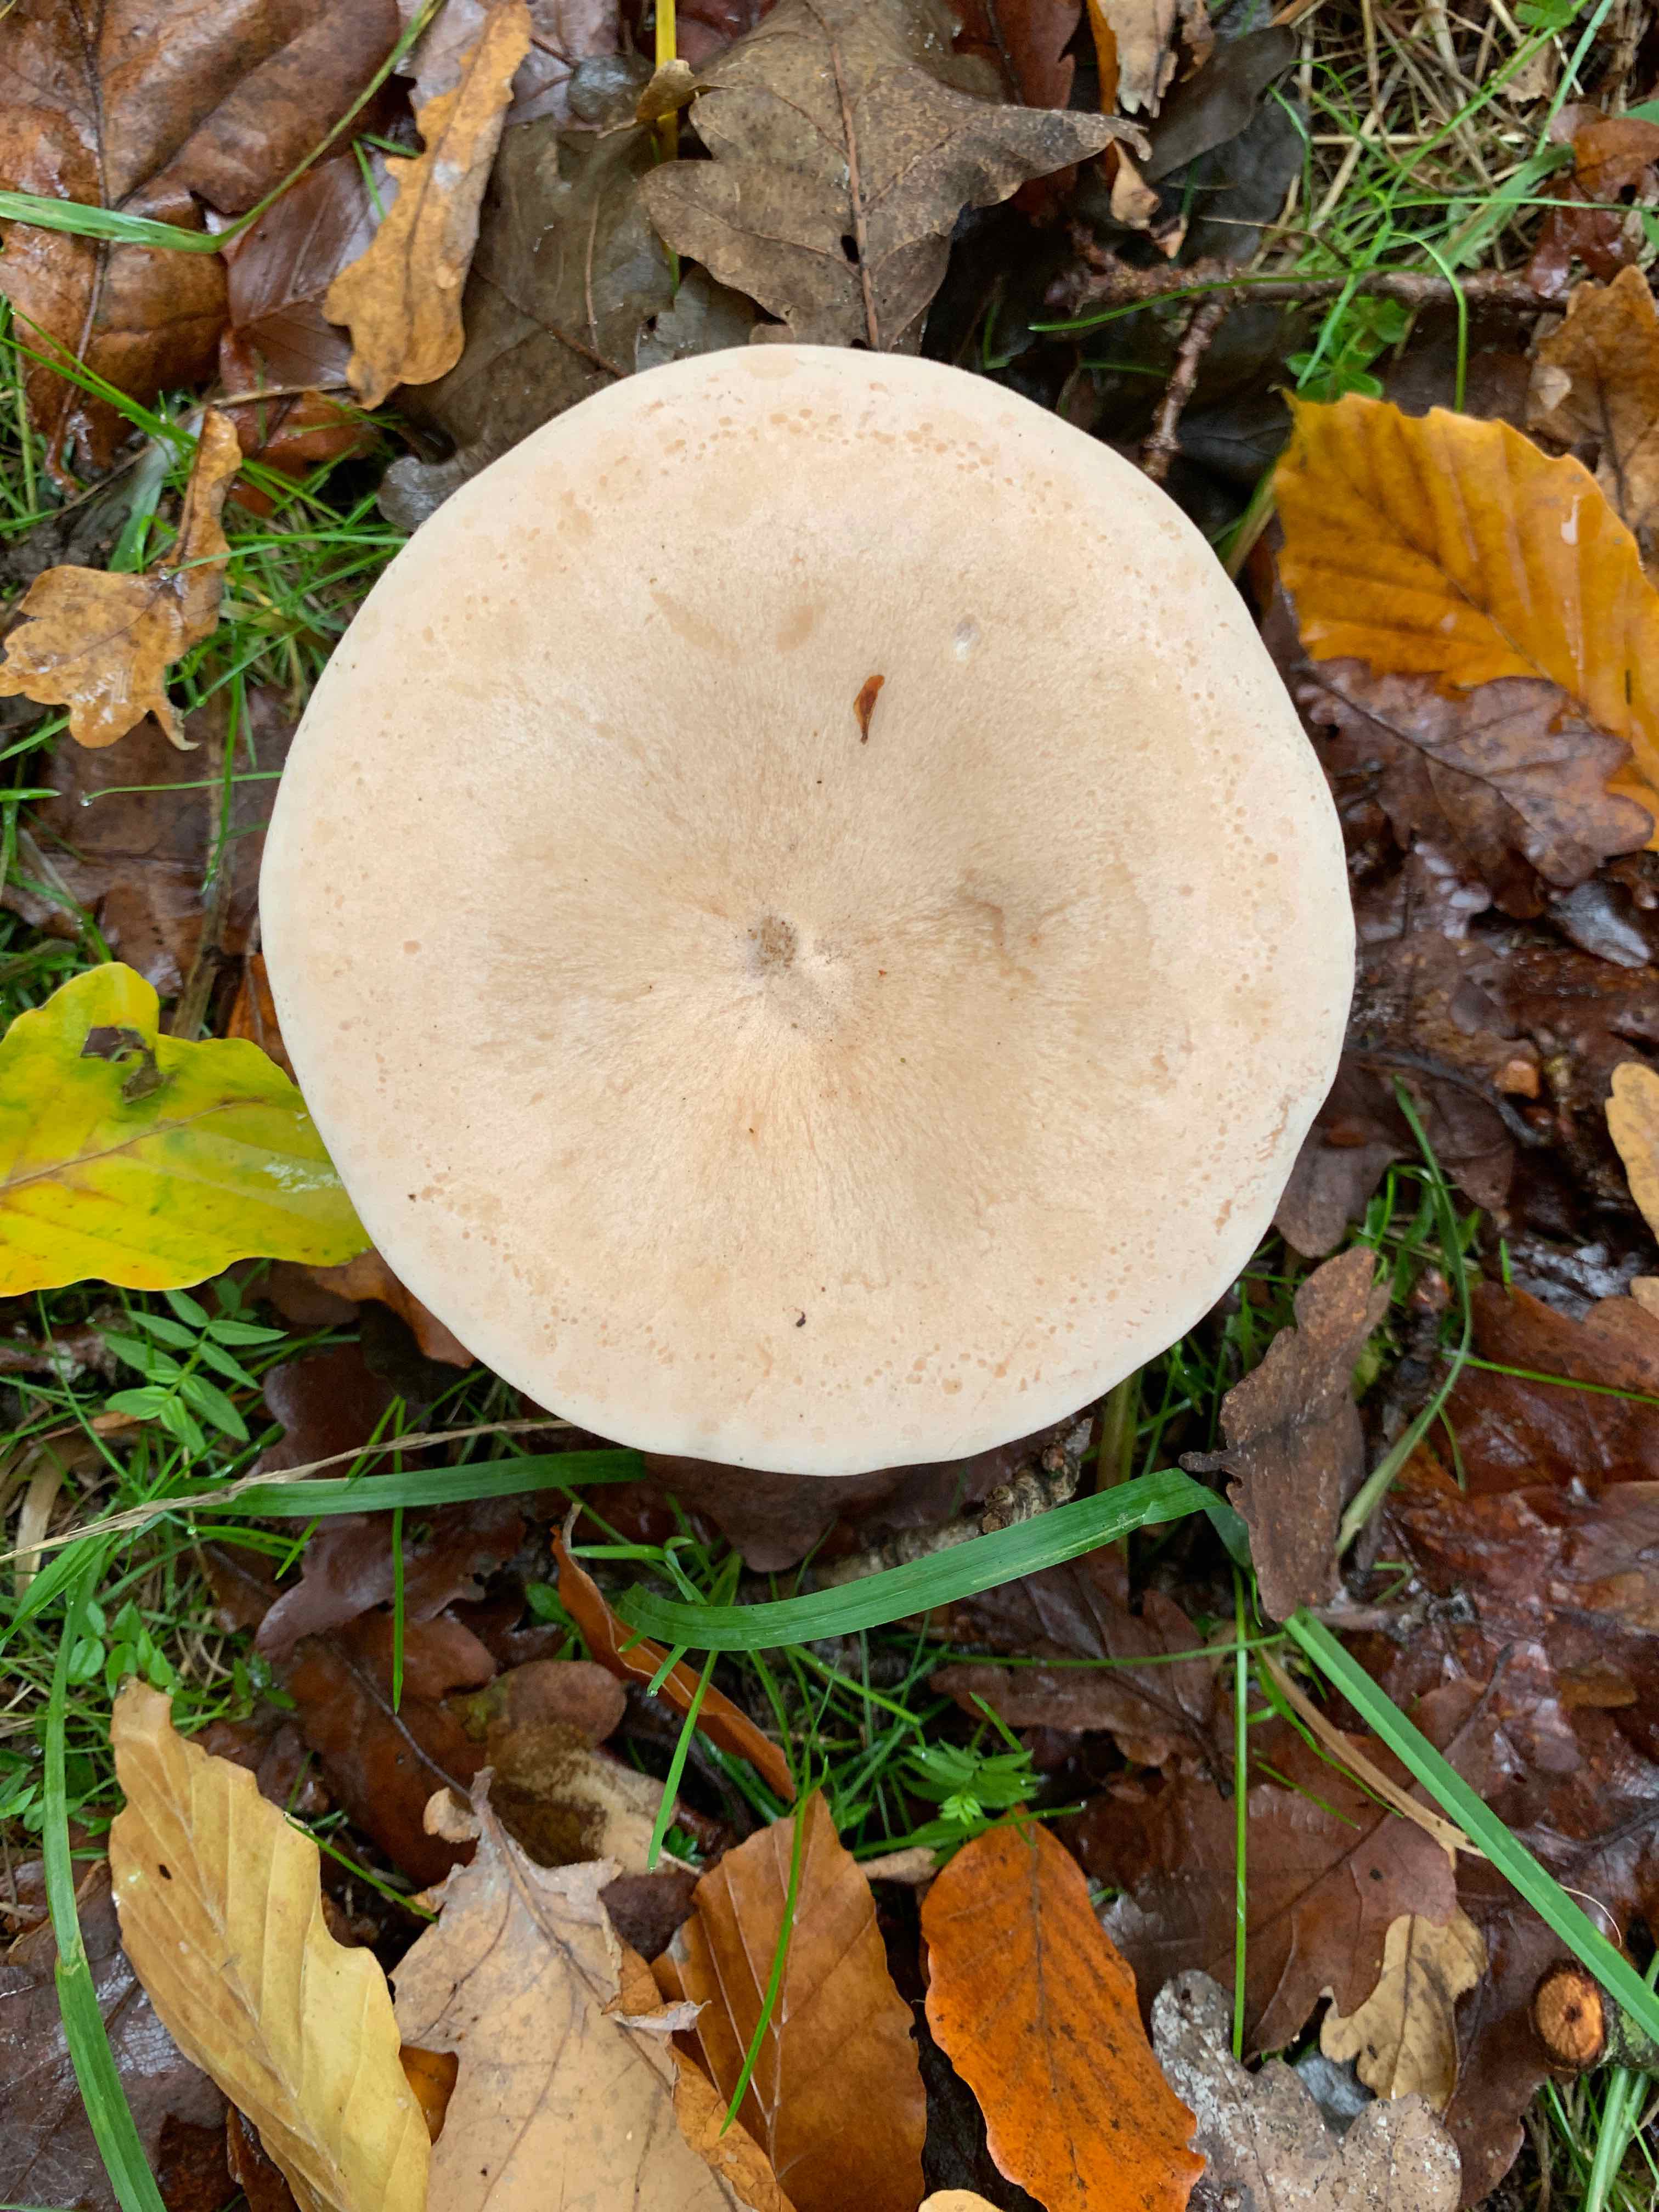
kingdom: Fungi
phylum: Basidiomycota
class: Agaricomycetes
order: Agaricales
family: Tricholomataceae
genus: Infundibulicybe
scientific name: Infundibulicybe geotropa
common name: stor tragthat
